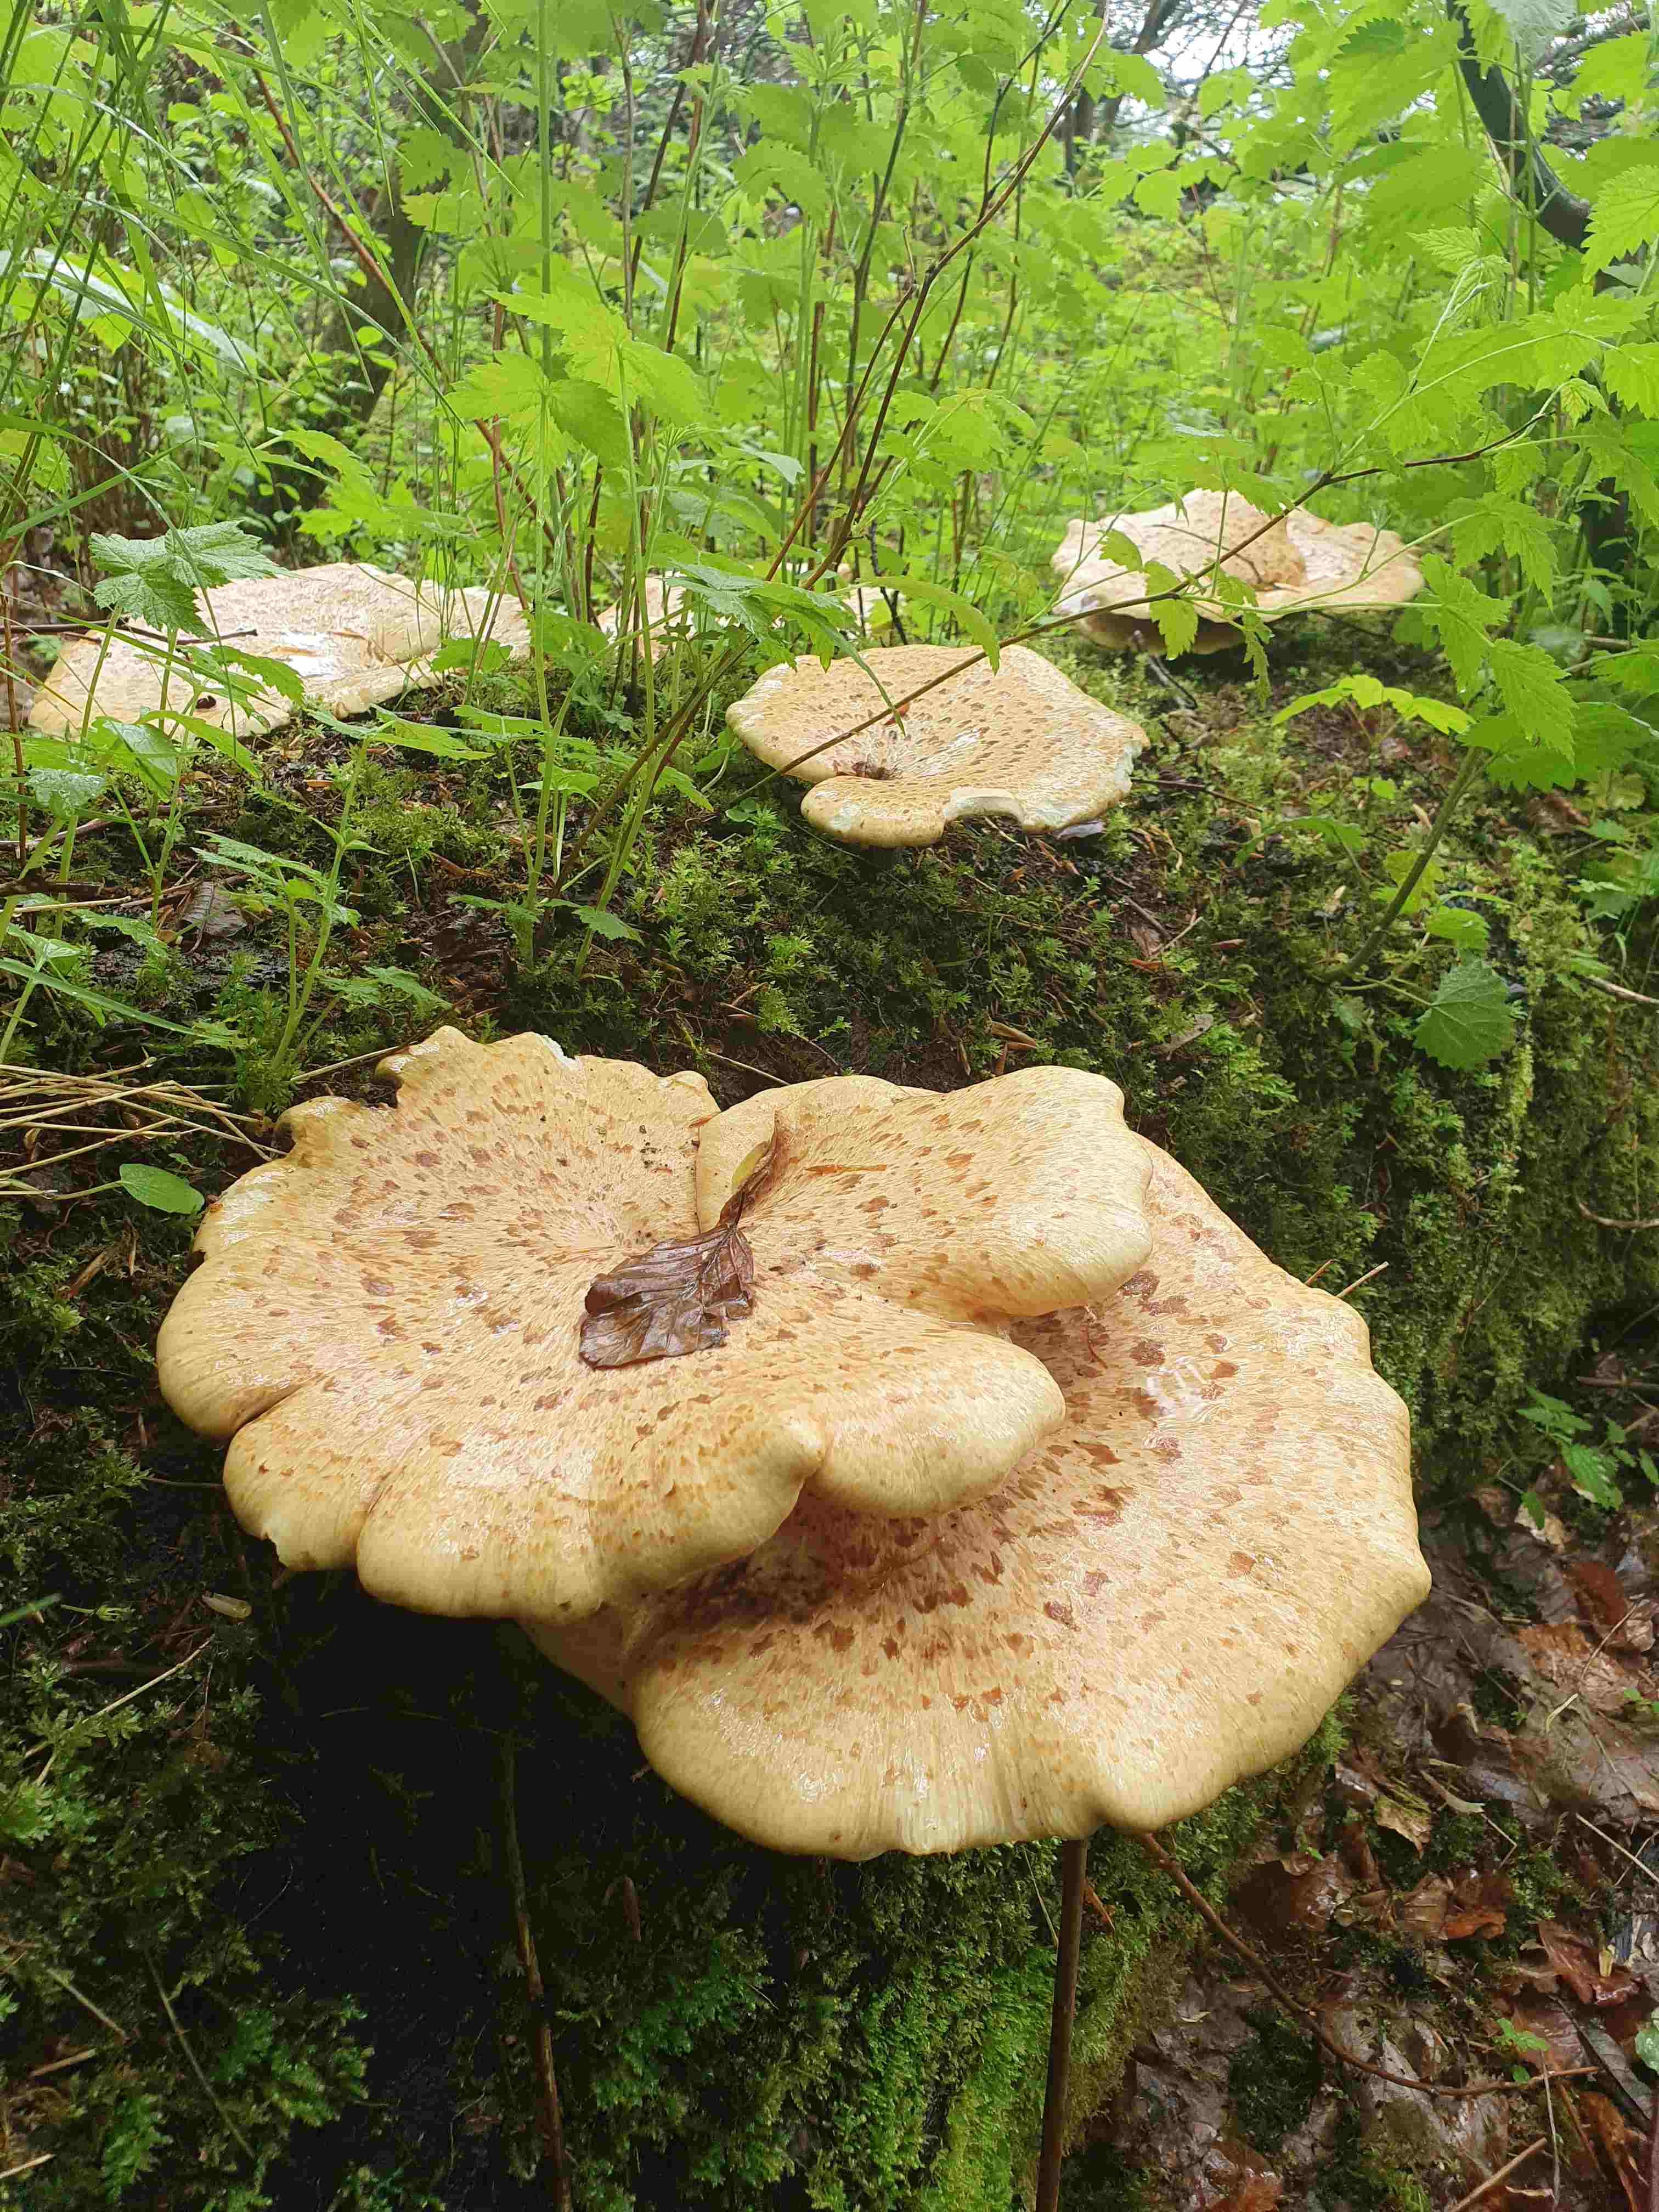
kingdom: Fungi
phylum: Basidiomycota
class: Agaricomycetes
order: Polyporales
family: Polyporaceae
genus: Cerioporus
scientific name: Cerioporus squamosus
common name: skællet stilkporesvamp
